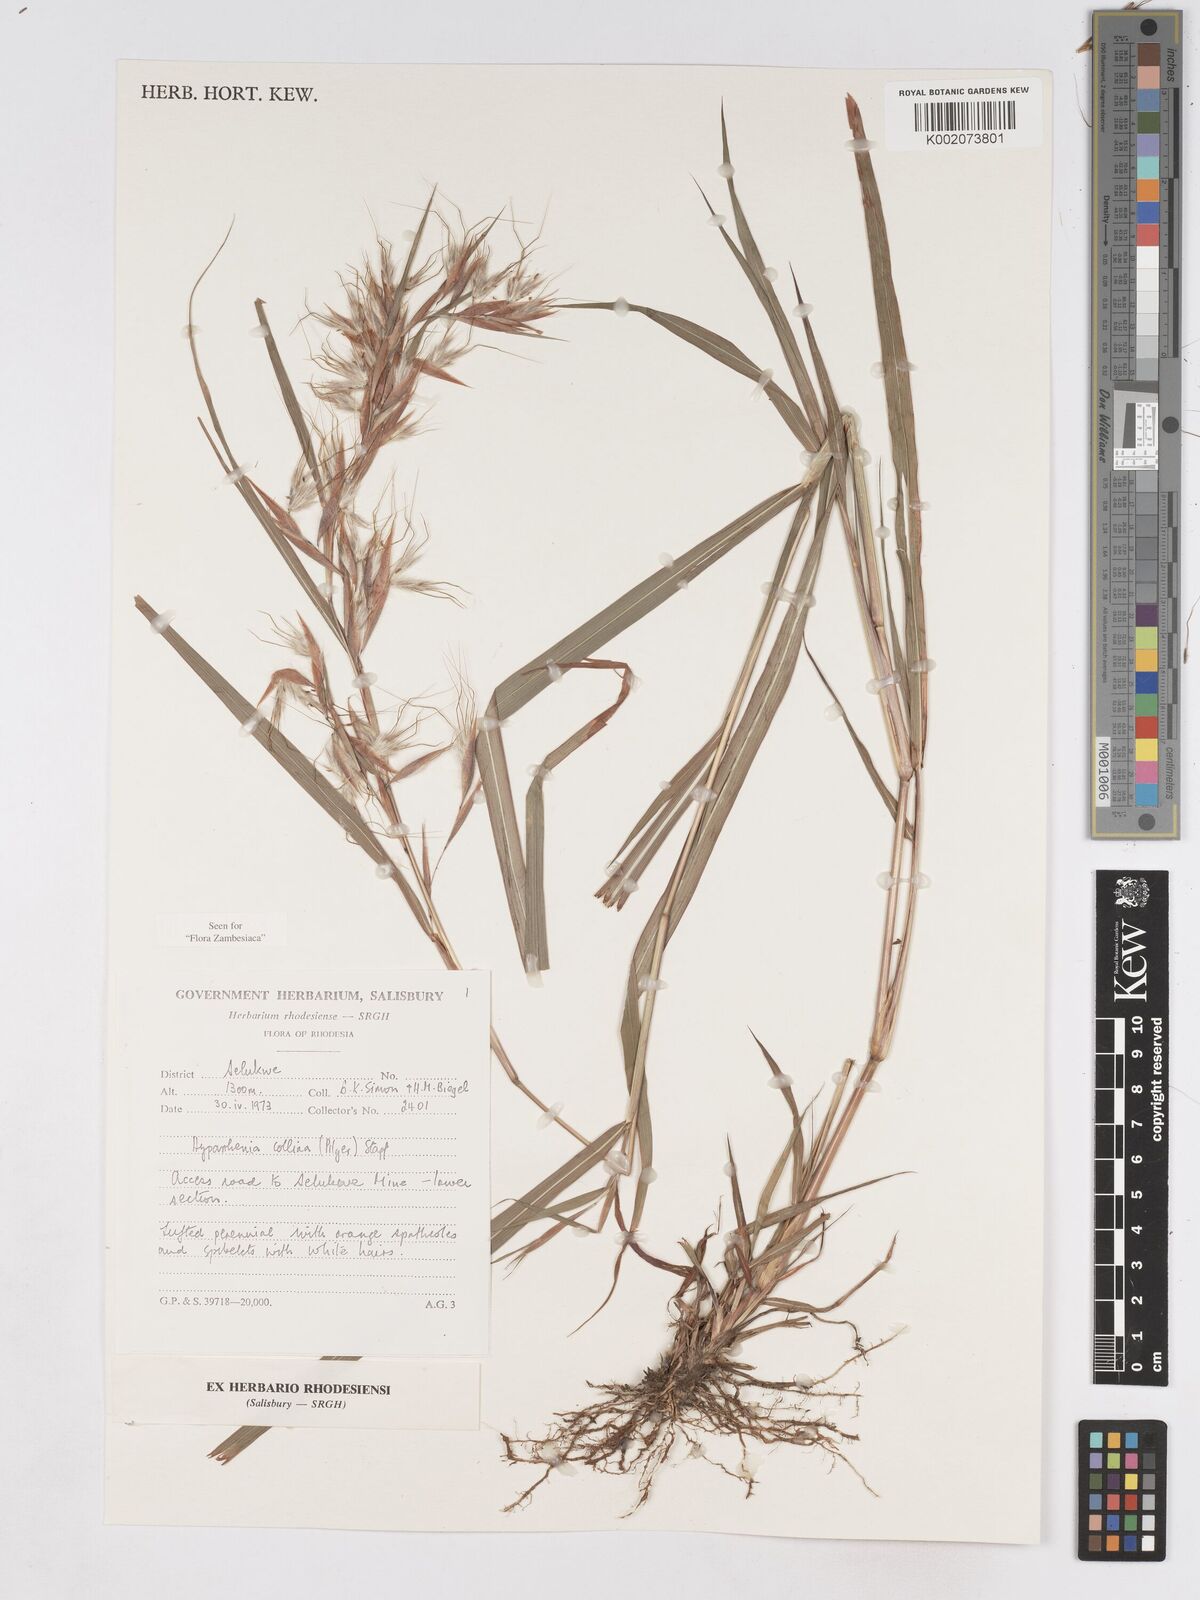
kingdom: Plantae
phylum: Tracheophyta
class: Liliopsida
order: Poales
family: Poaceae
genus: Hyparrhenia
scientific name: Hyparrhenia collina
